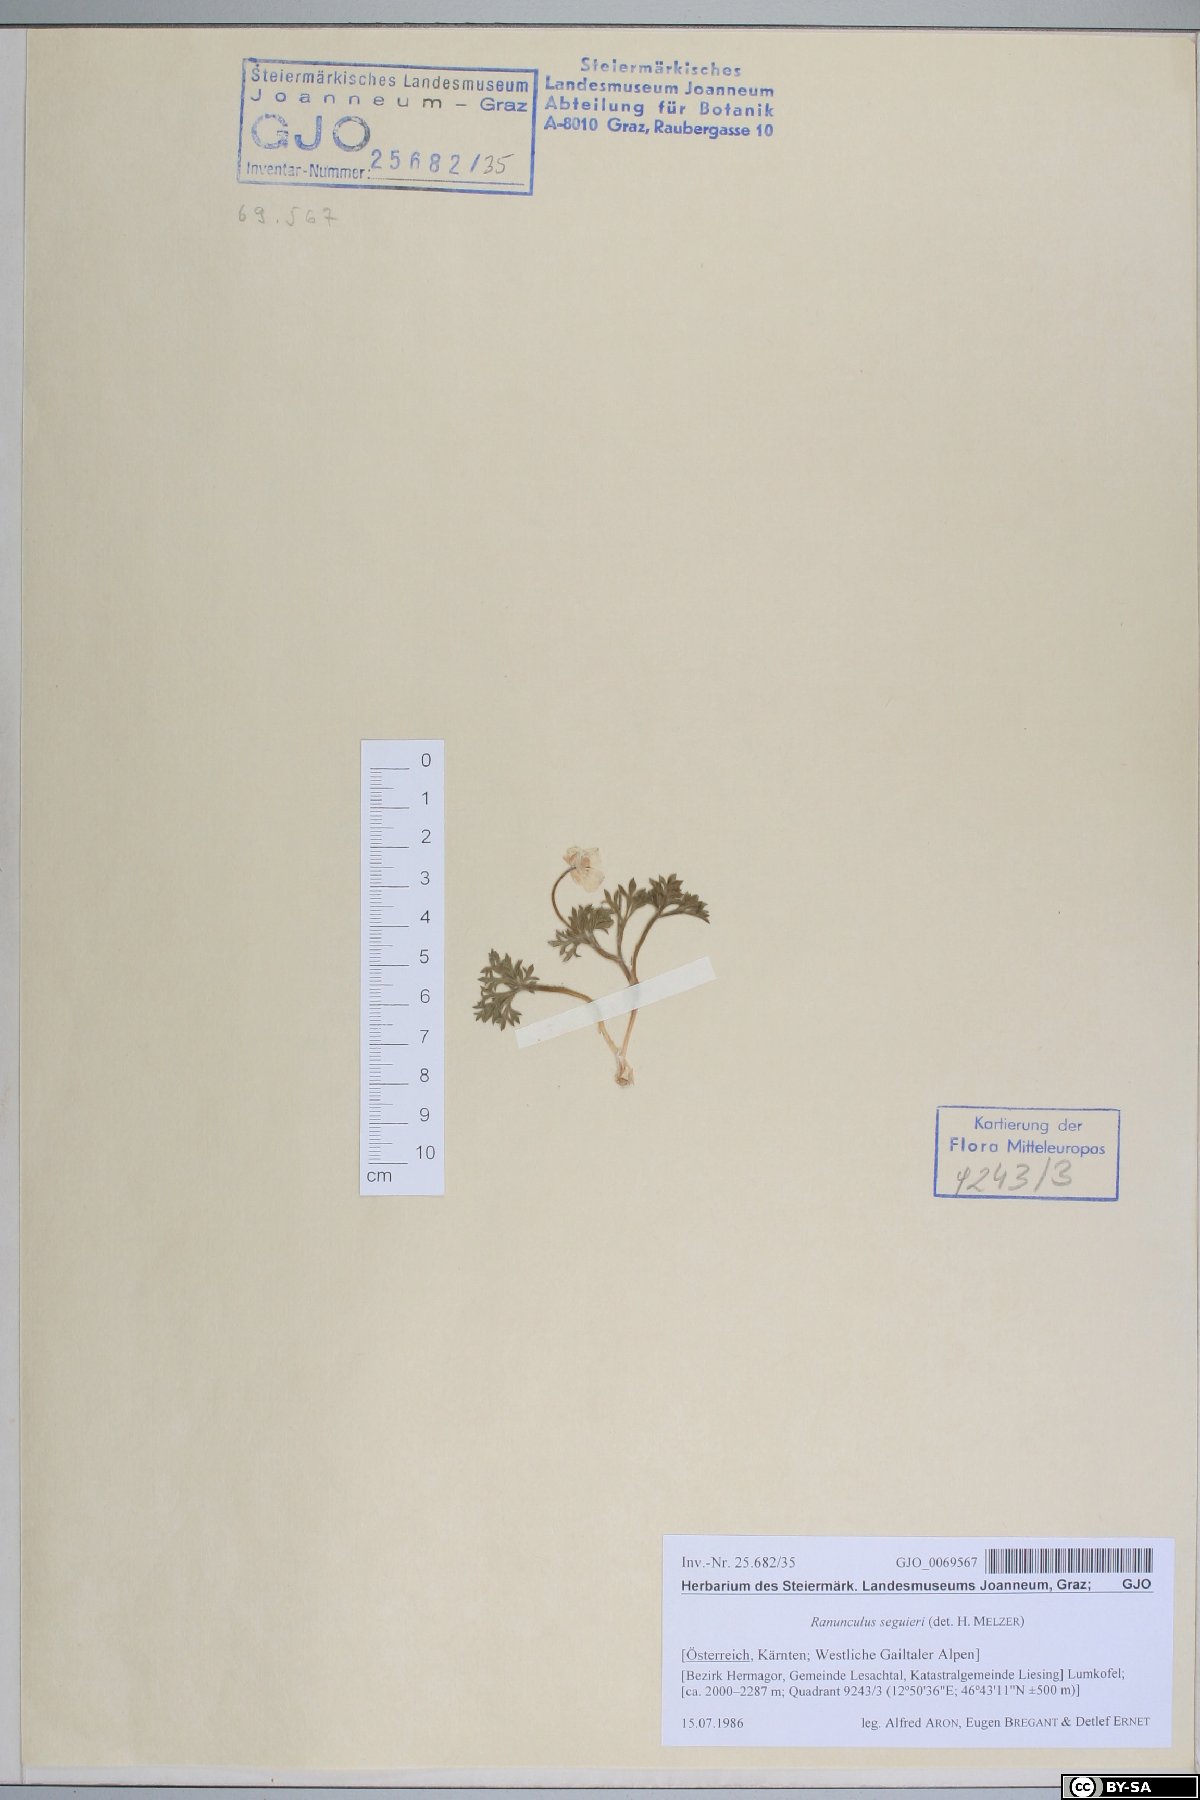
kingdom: Plantae
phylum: Tracheophyta
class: Magnoliopsida
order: Ranunculales
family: Ranunculaceae
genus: Ranunculus
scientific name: Ranunculus seguieri
